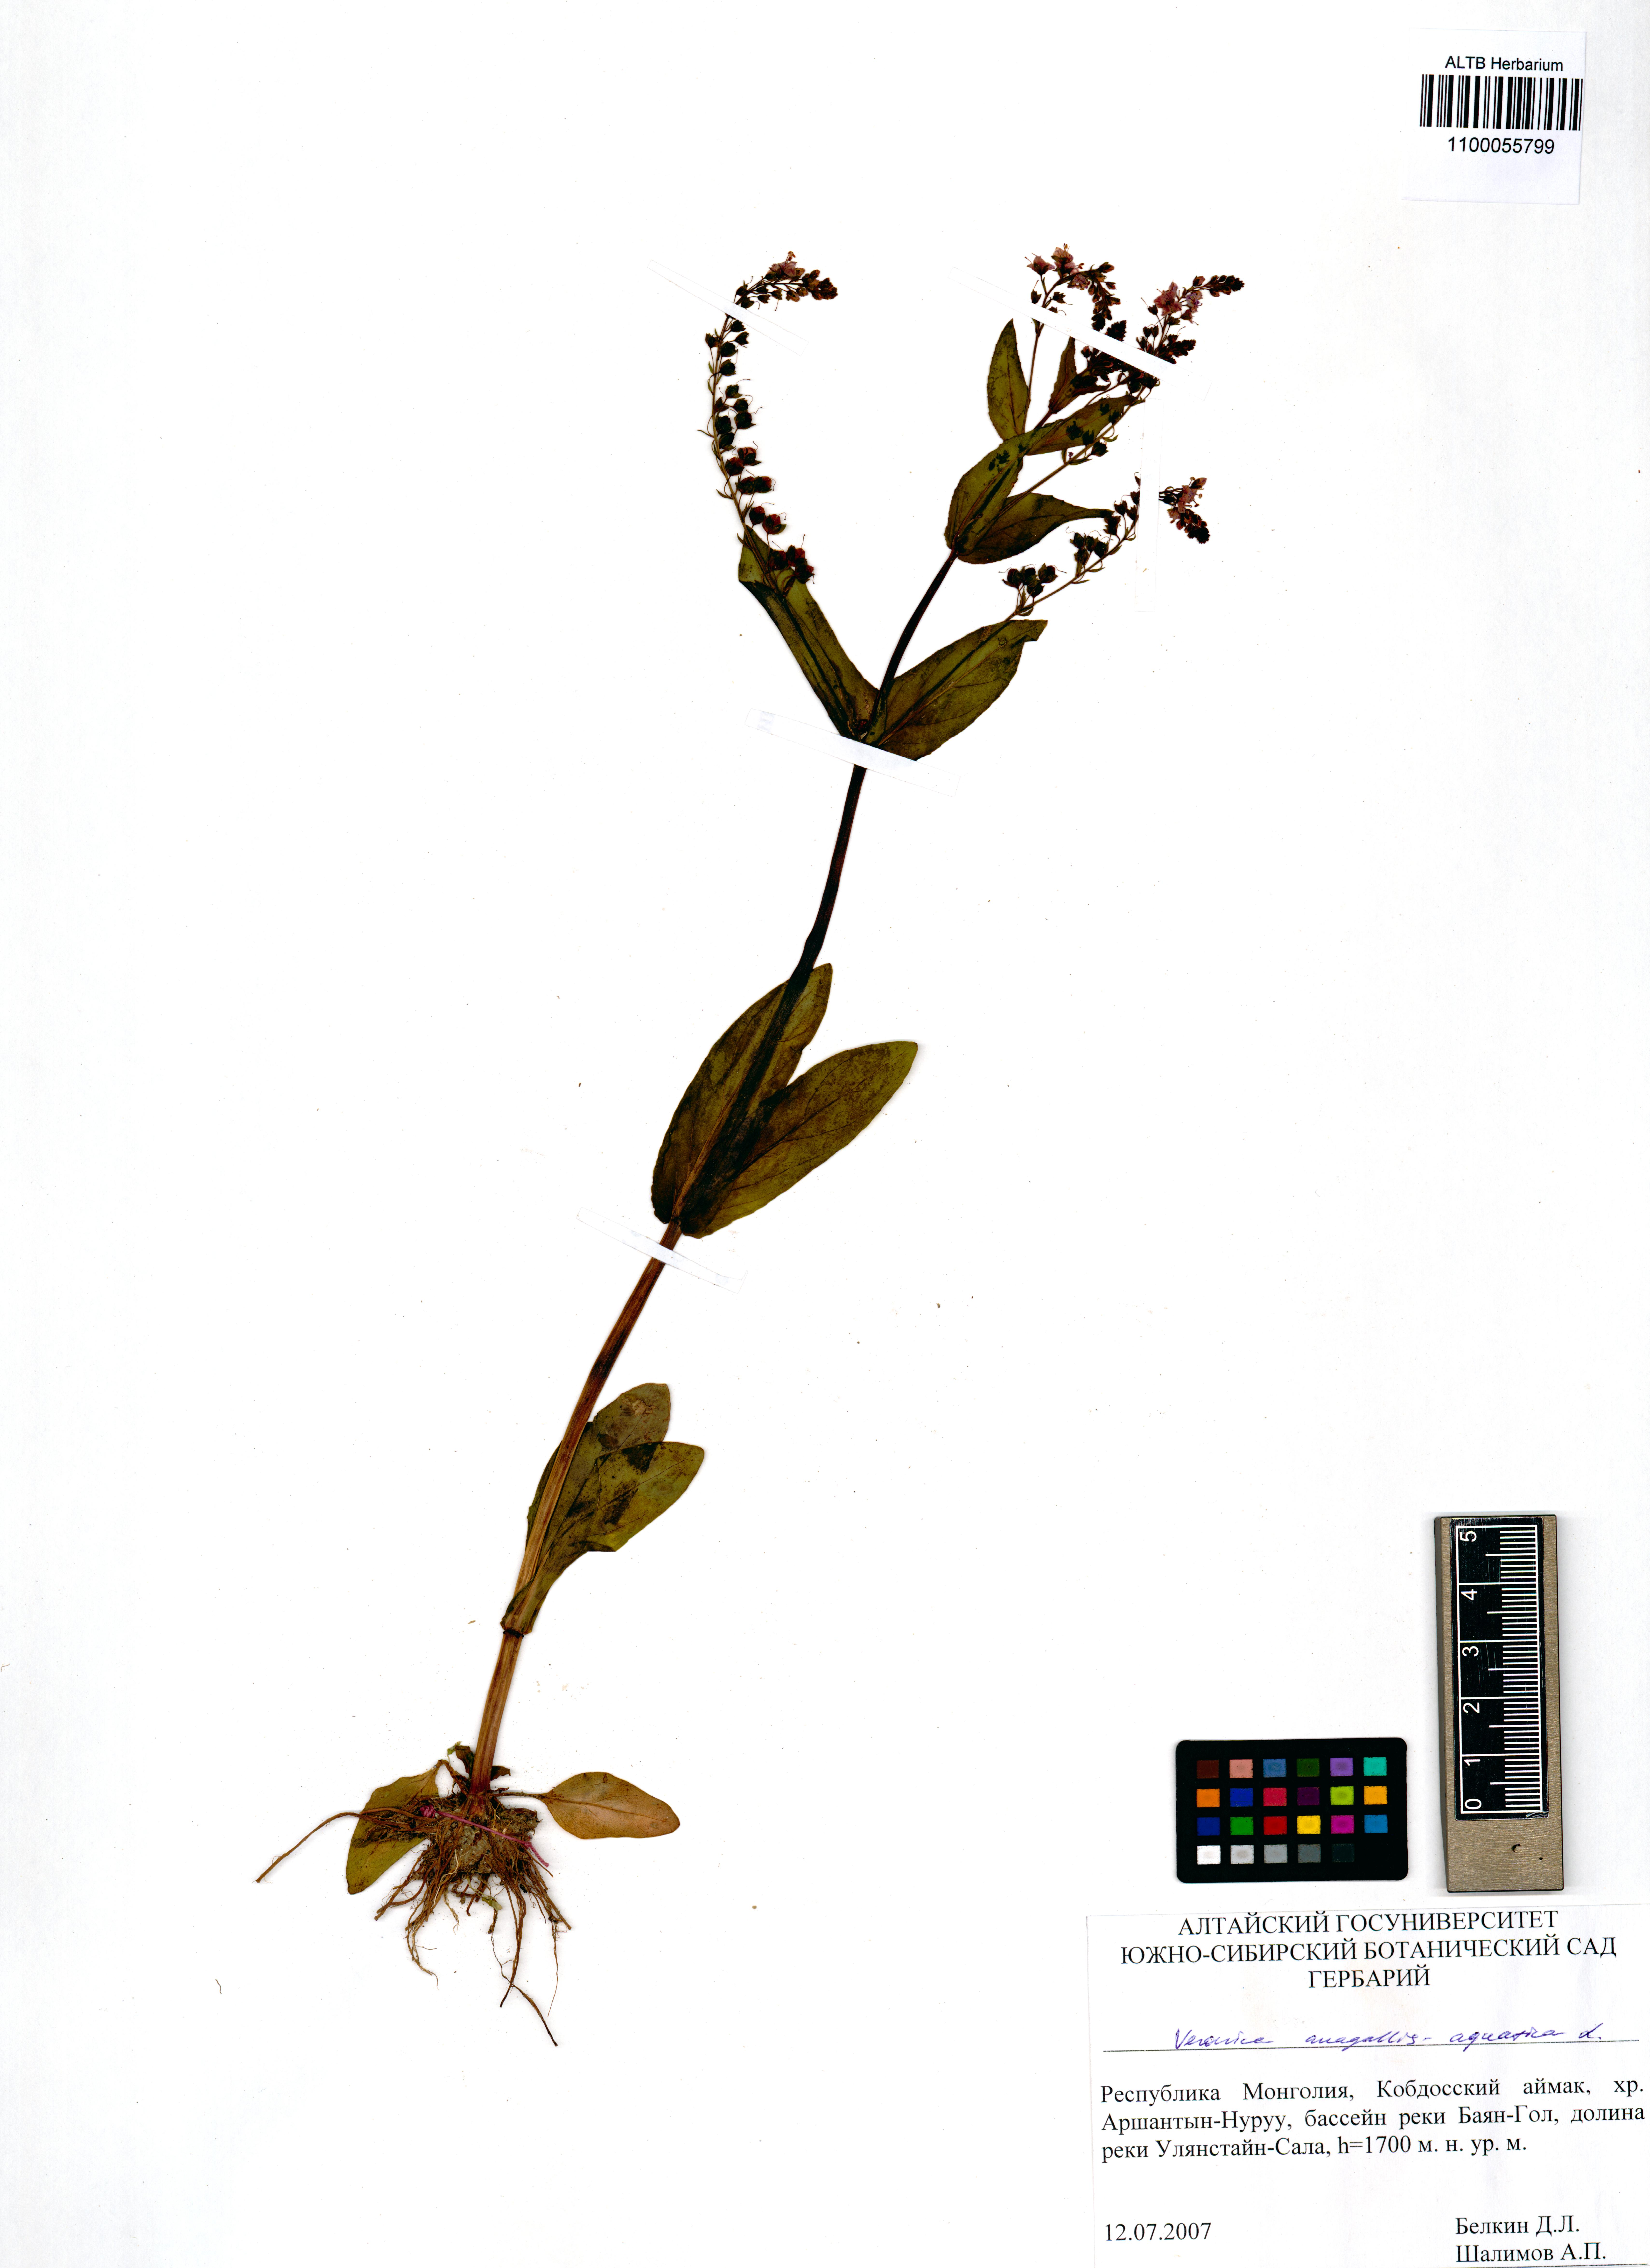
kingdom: Plantae
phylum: Tracheophyta
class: Magnoliopsida
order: Lamiales
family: Plantaginaceae
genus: Veronica
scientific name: Veronica anagallis-aquatica
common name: Water speedwell
